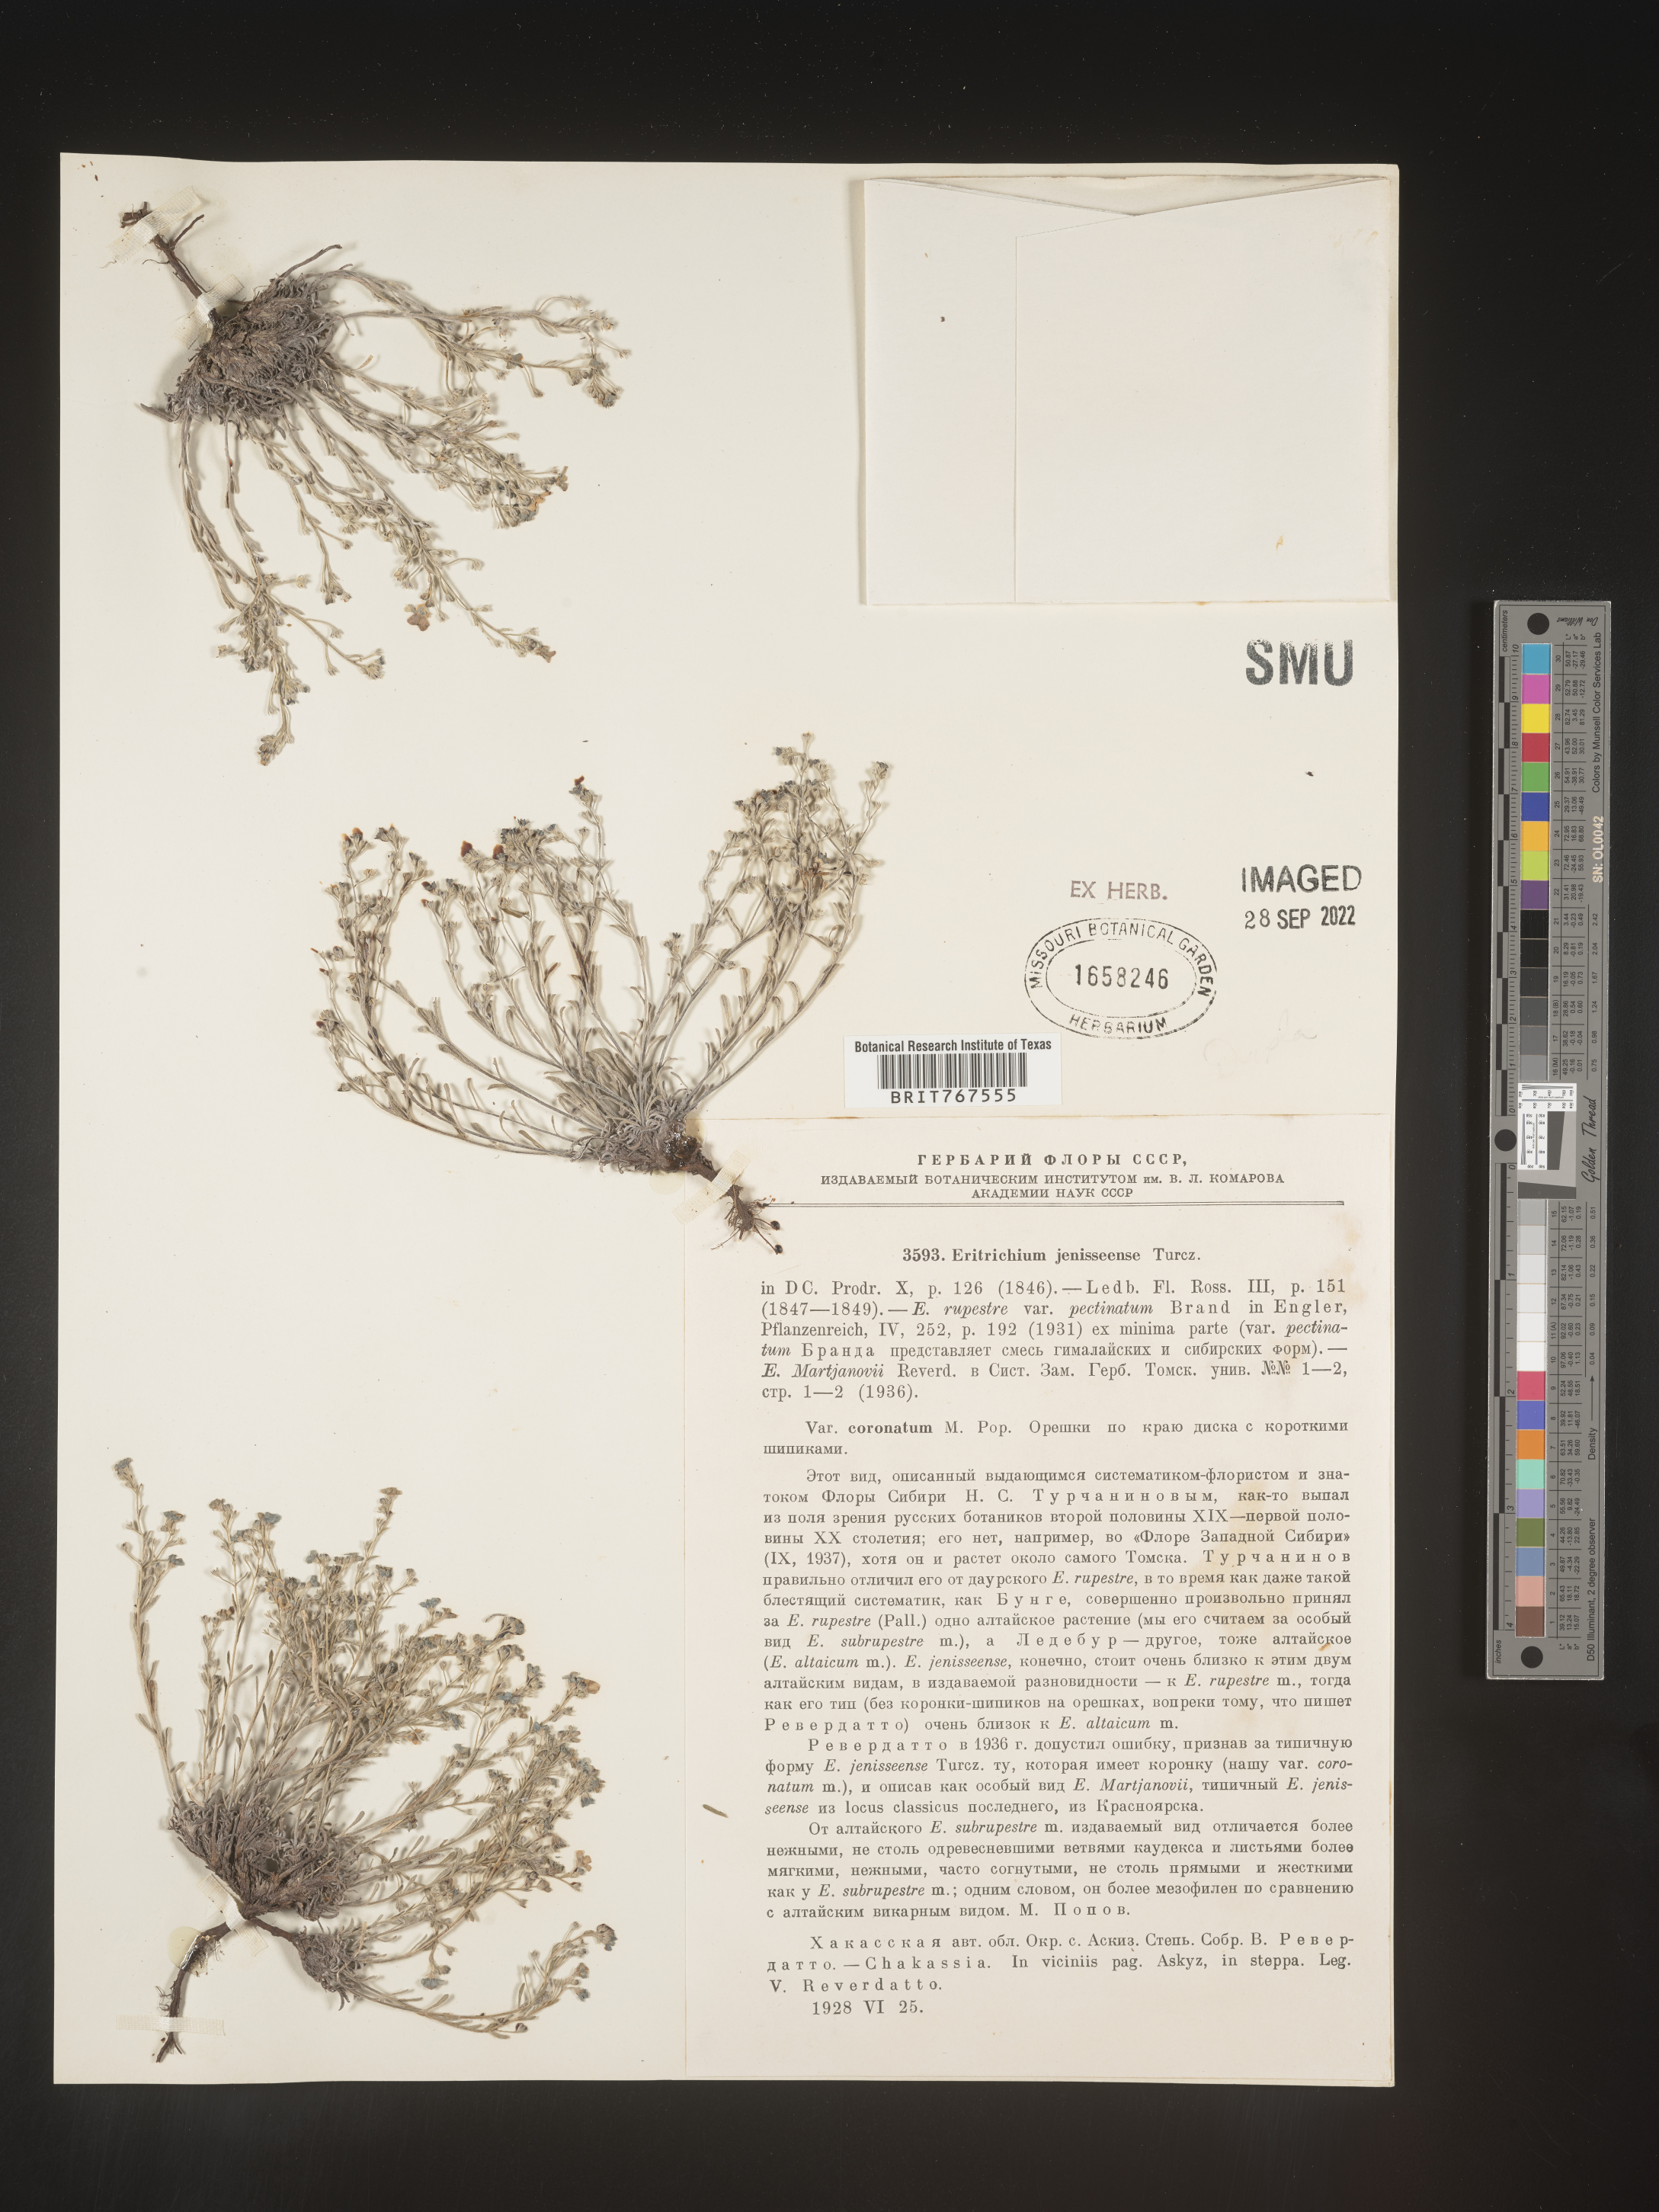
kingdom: Plantae
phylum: Tracheophyta
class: Magnoliopsida
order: Boraginales
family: Boraginaceae
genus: Eritrichium
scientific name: Eritrichium
